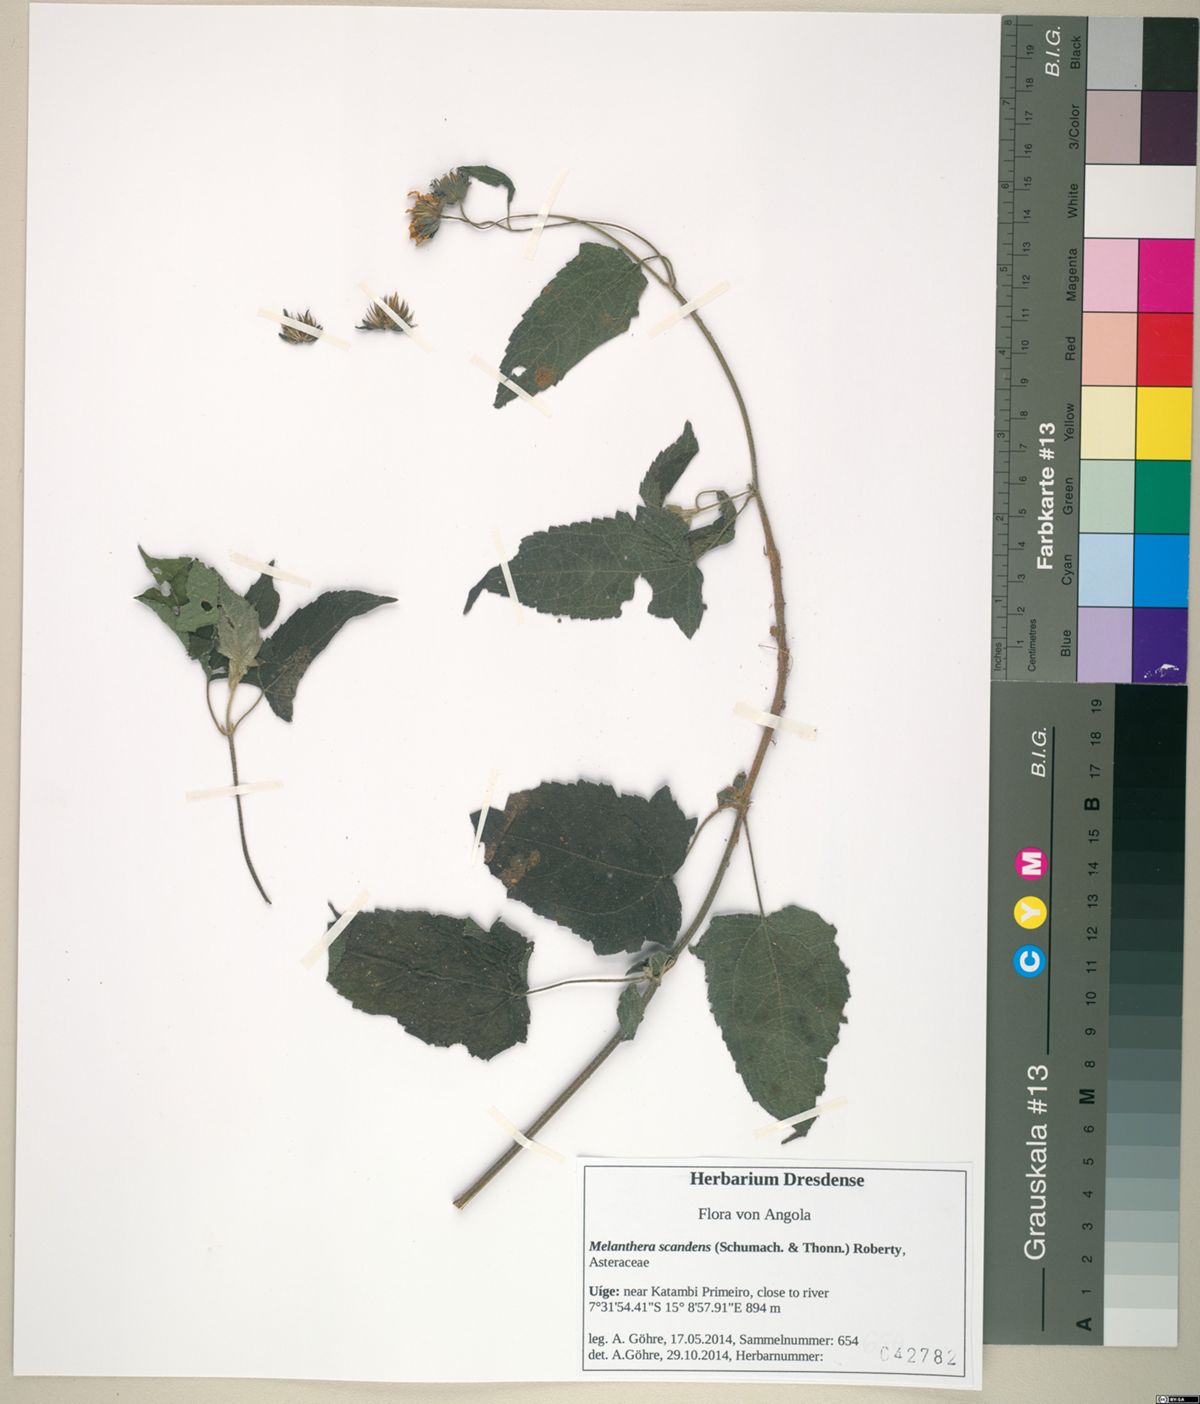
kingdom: Plantae
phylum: Tracheophyta
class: Magnoliopsida
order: Asterales
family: Asteraceae
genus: Melanthera
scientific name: Melanthera scandens
